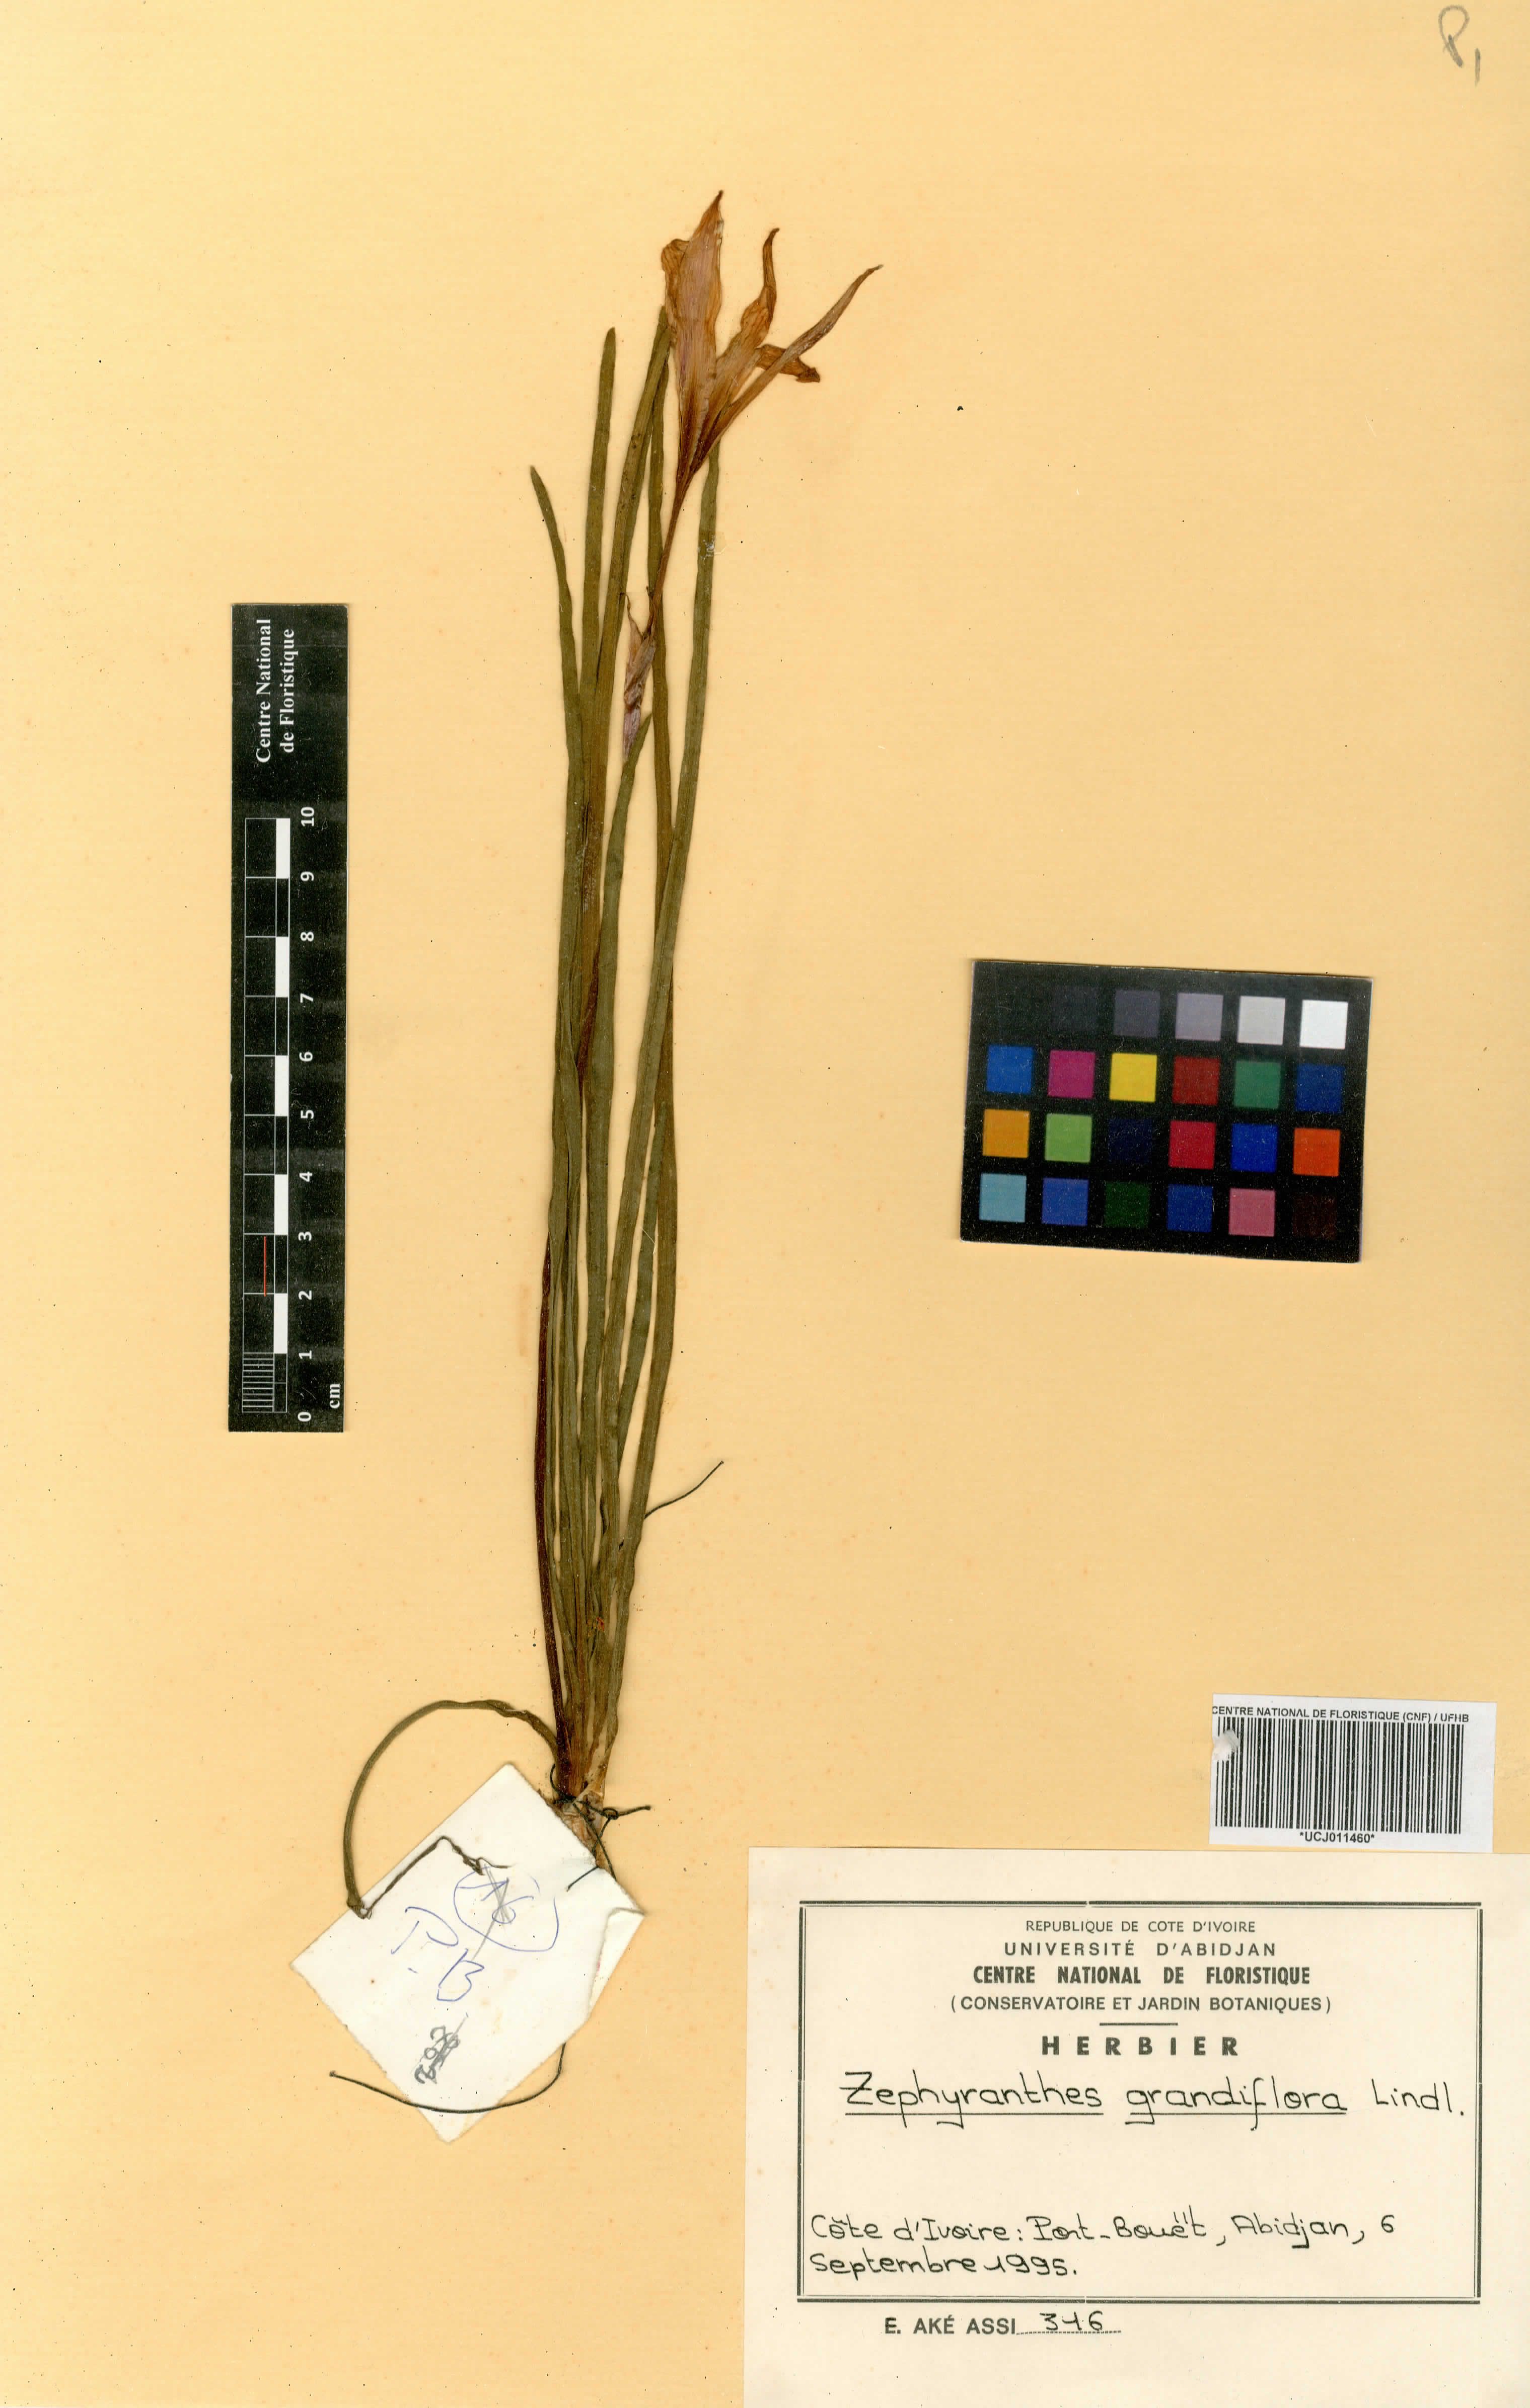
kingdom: Plantae
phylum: Tracheophyta
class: Liliopsida
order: Asparagales
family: Amaryllidaceae
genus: Zephyranthes
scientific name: Zephyranthes minuta
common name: Pink rain lily
